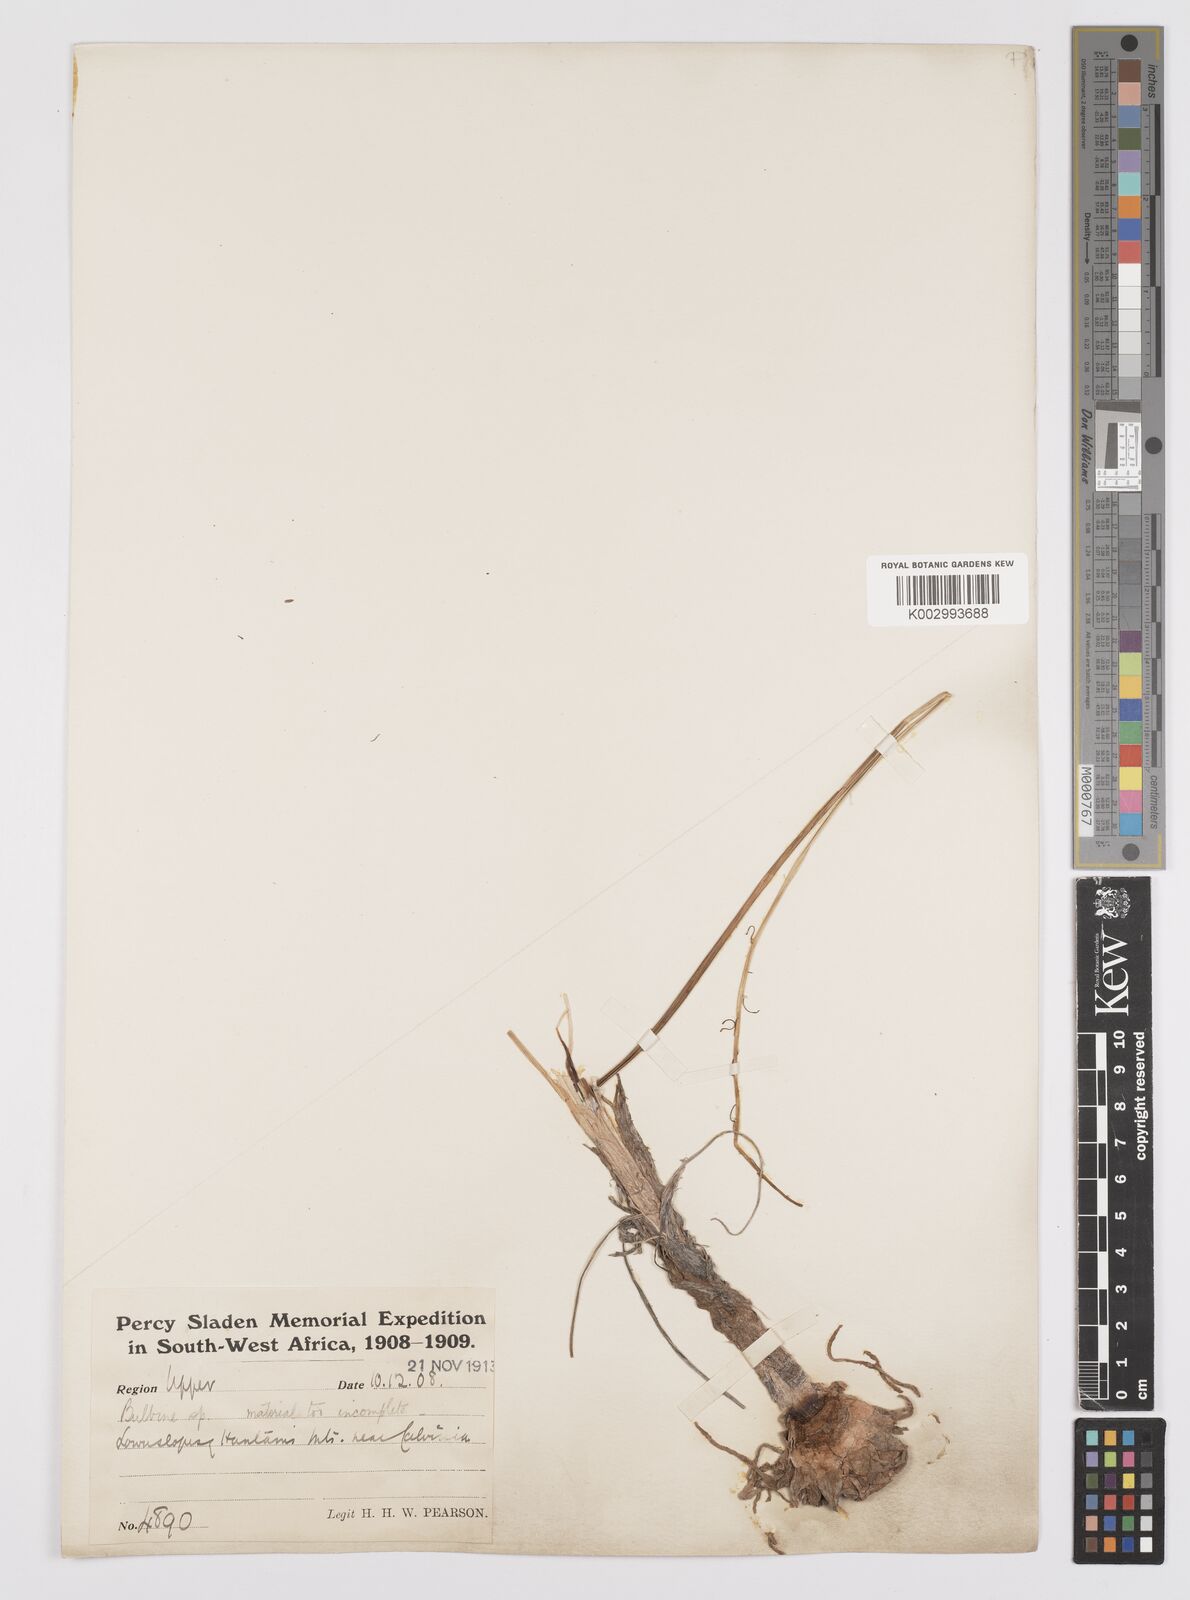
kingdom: Plantae
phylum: Tracheophyta
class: Liliopsida
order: Asparagales
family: Asphodelaceae
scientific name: Asphodelaceae
